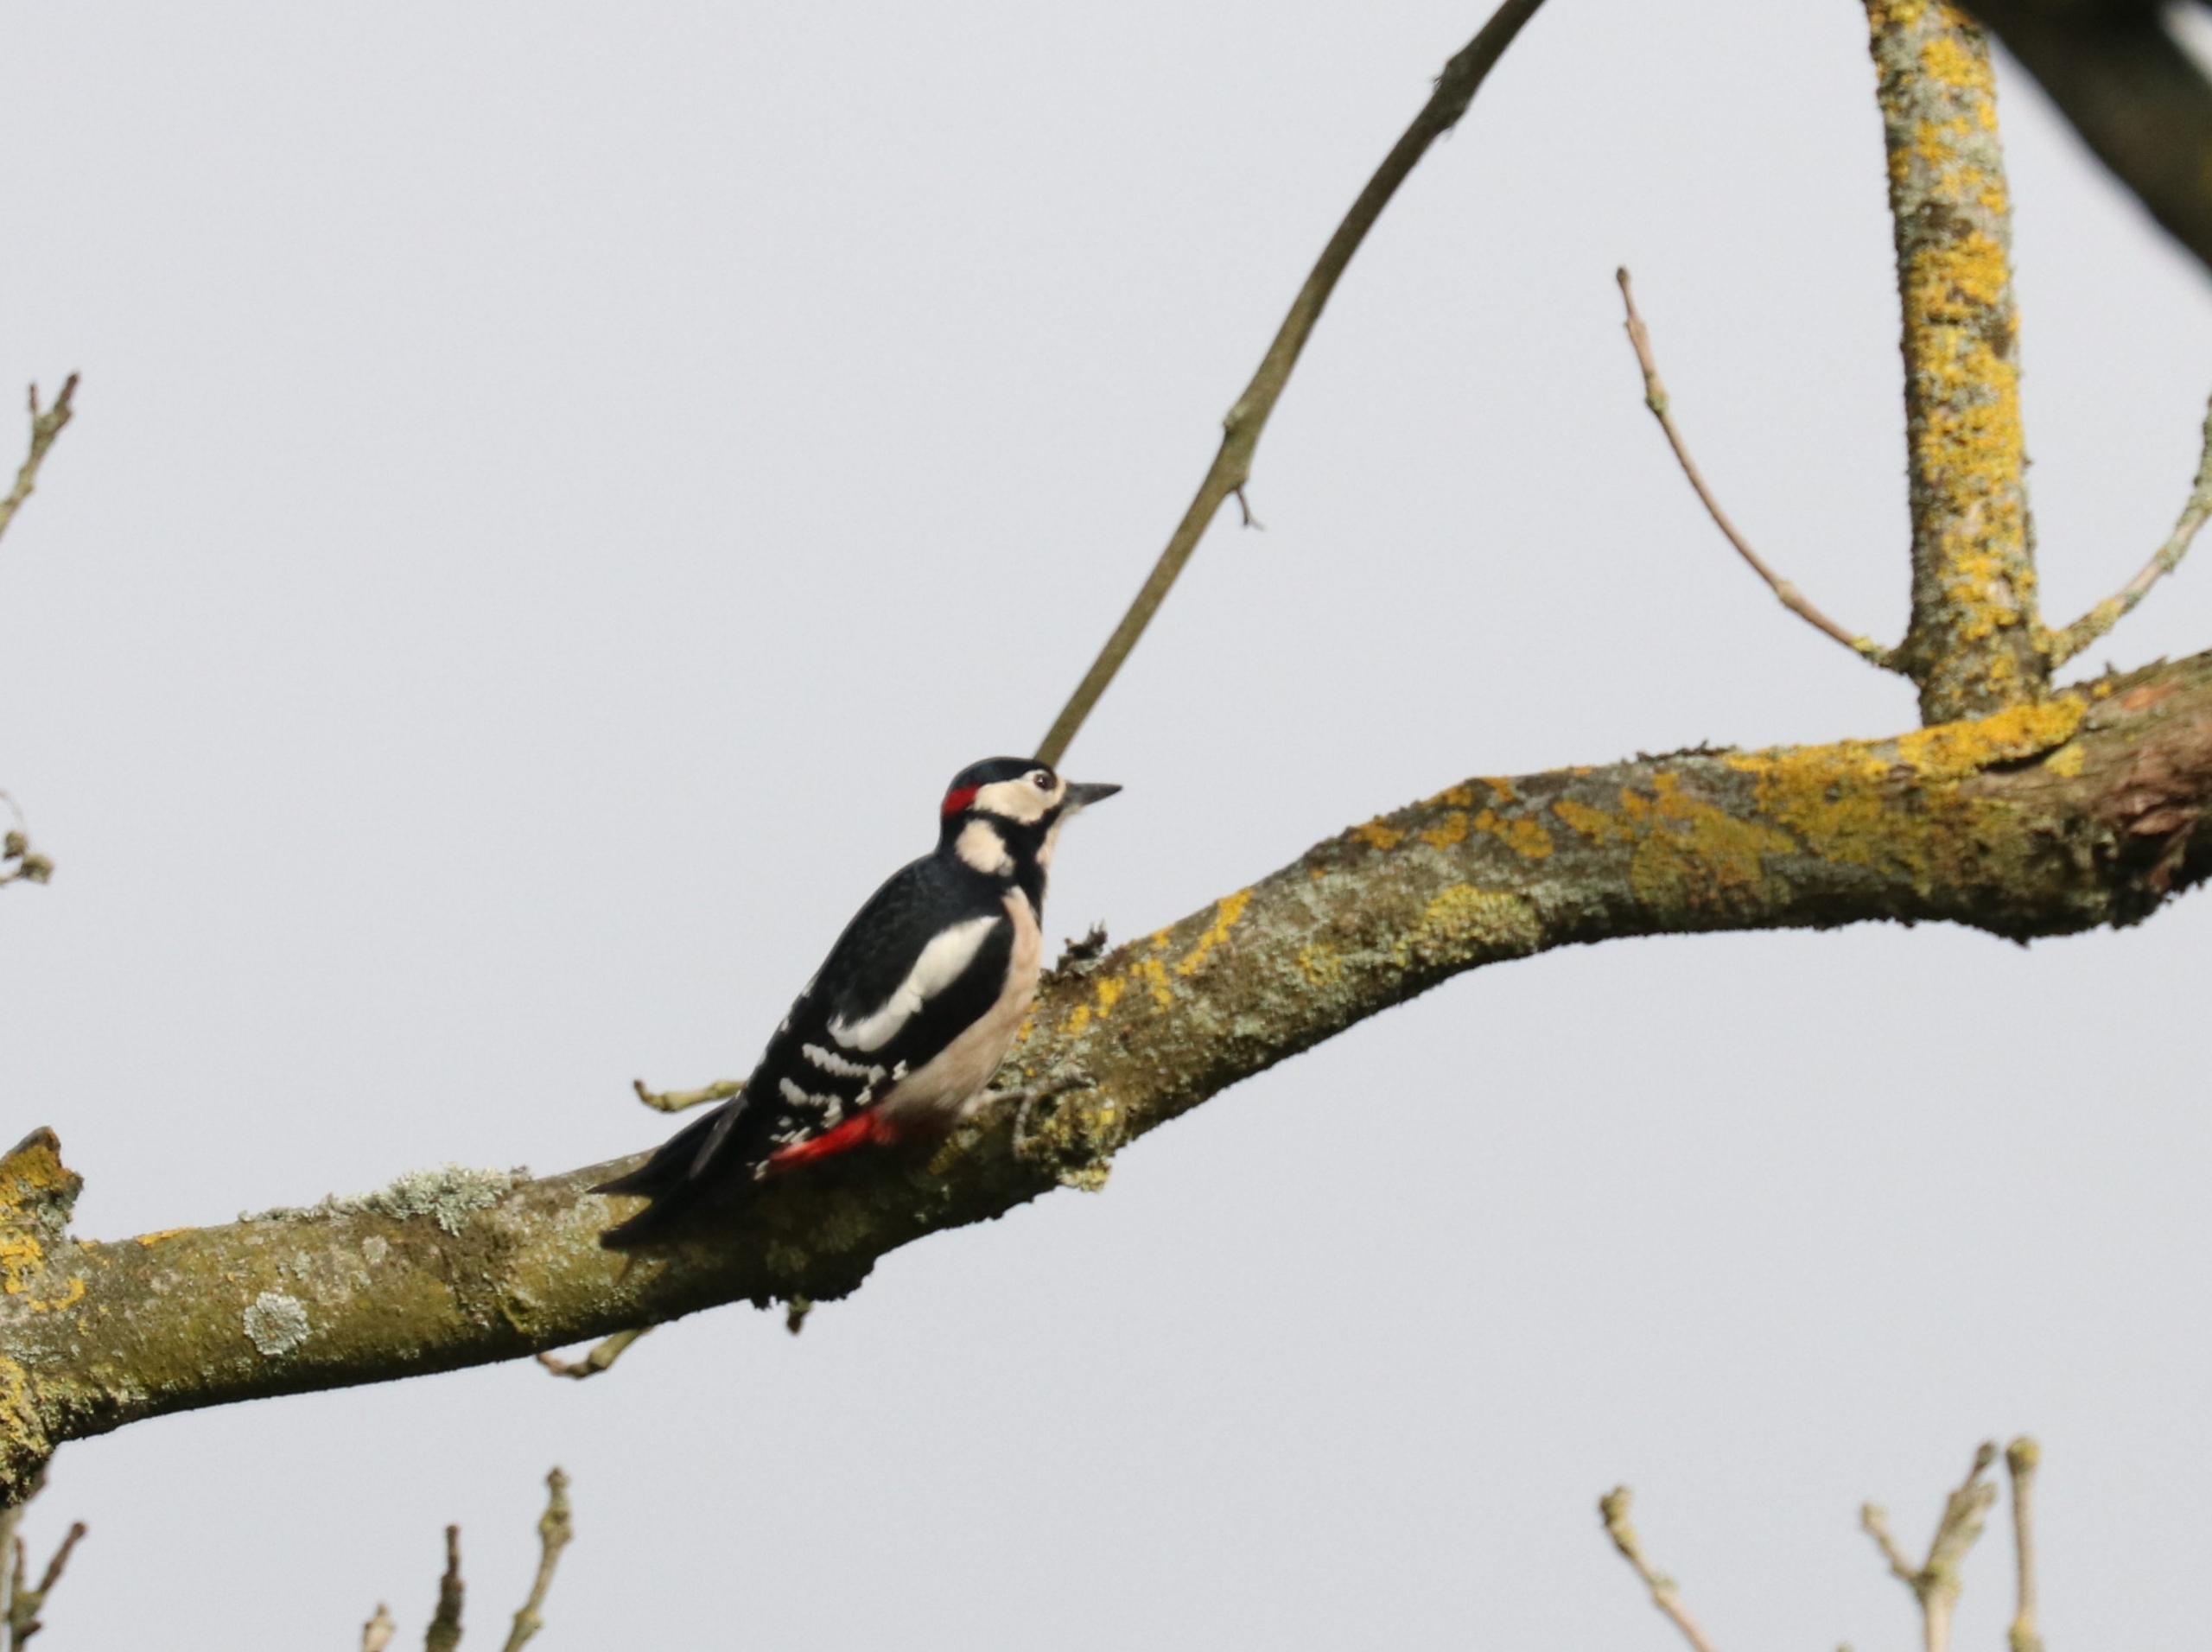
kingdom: Animalia
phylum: Chordata
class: Aves
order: Piciformes
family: Picidae
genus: Dendrocopos
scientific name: Dendrocopos major
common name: Stor flagspætte
